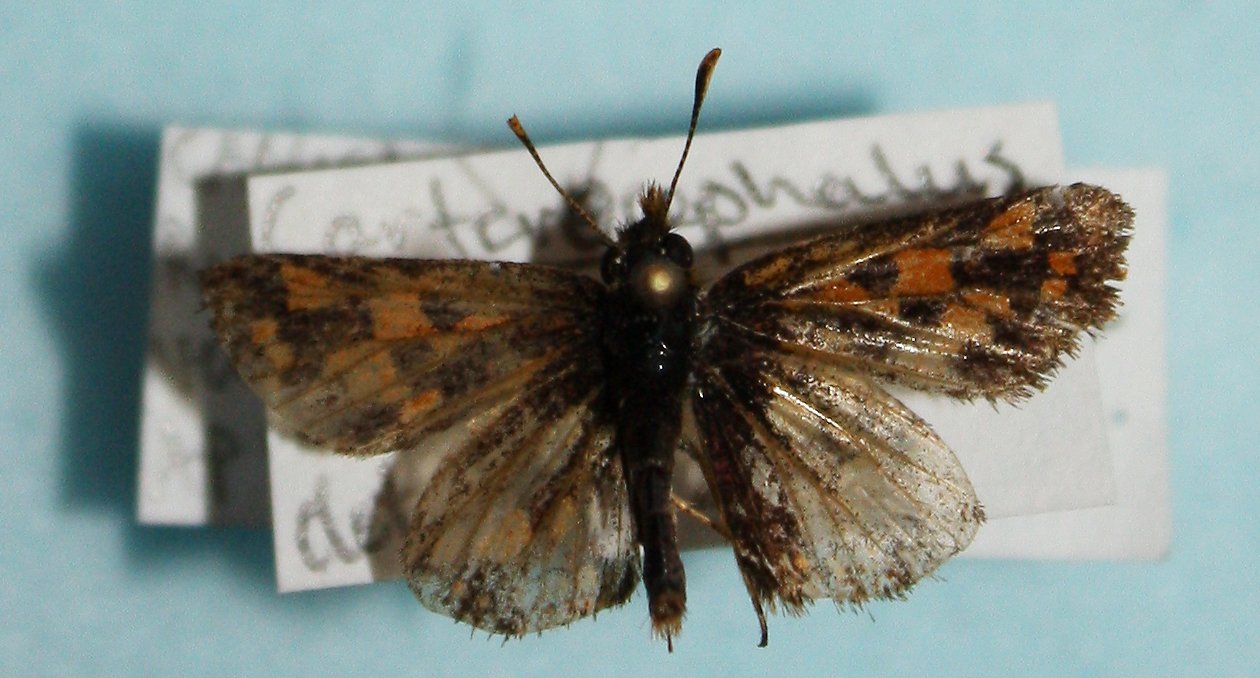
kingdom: Animalia
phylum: Arthropoda
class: Insecta
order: Lepidoptera
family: Hesperiidae
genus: Carterocephalus
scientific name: Carterocephalus palaemon
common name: Chequered Skipper
